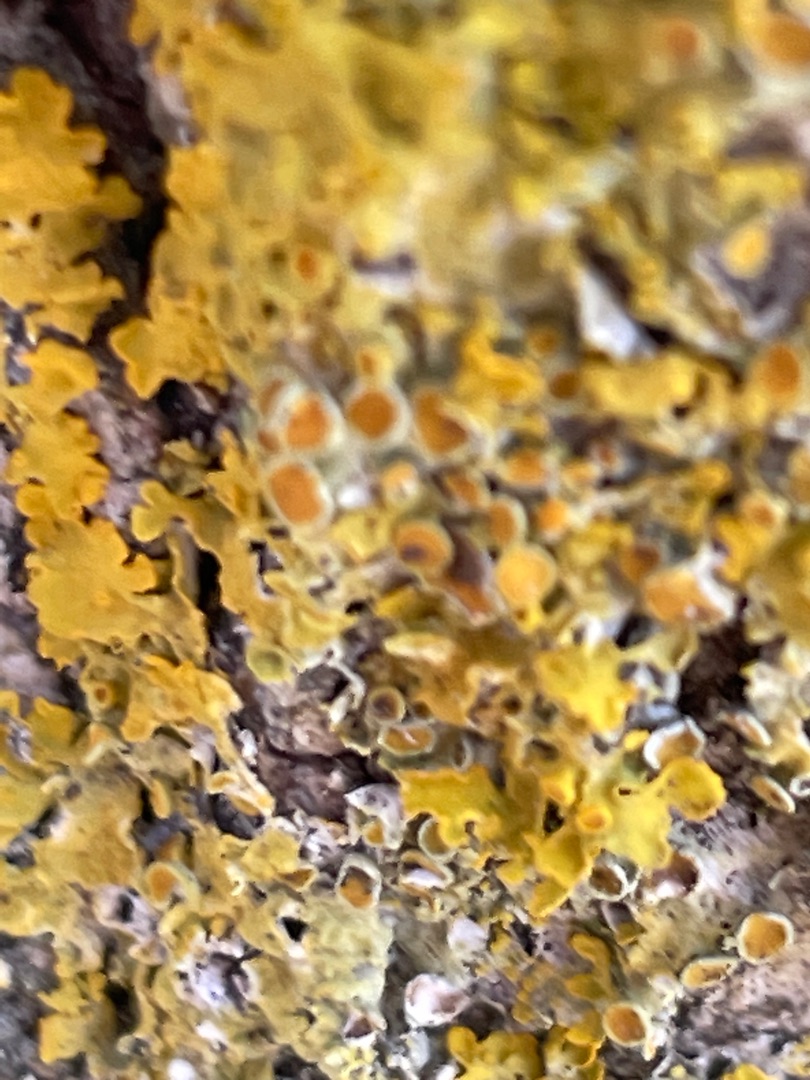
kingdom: Fungi
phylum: Ascomycota
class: Lecanoromycetes
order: Teloschistales
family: Teloschistaceae
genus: Xanthoria
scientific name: Xanthoria parietina
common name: Almindelig væggelav
